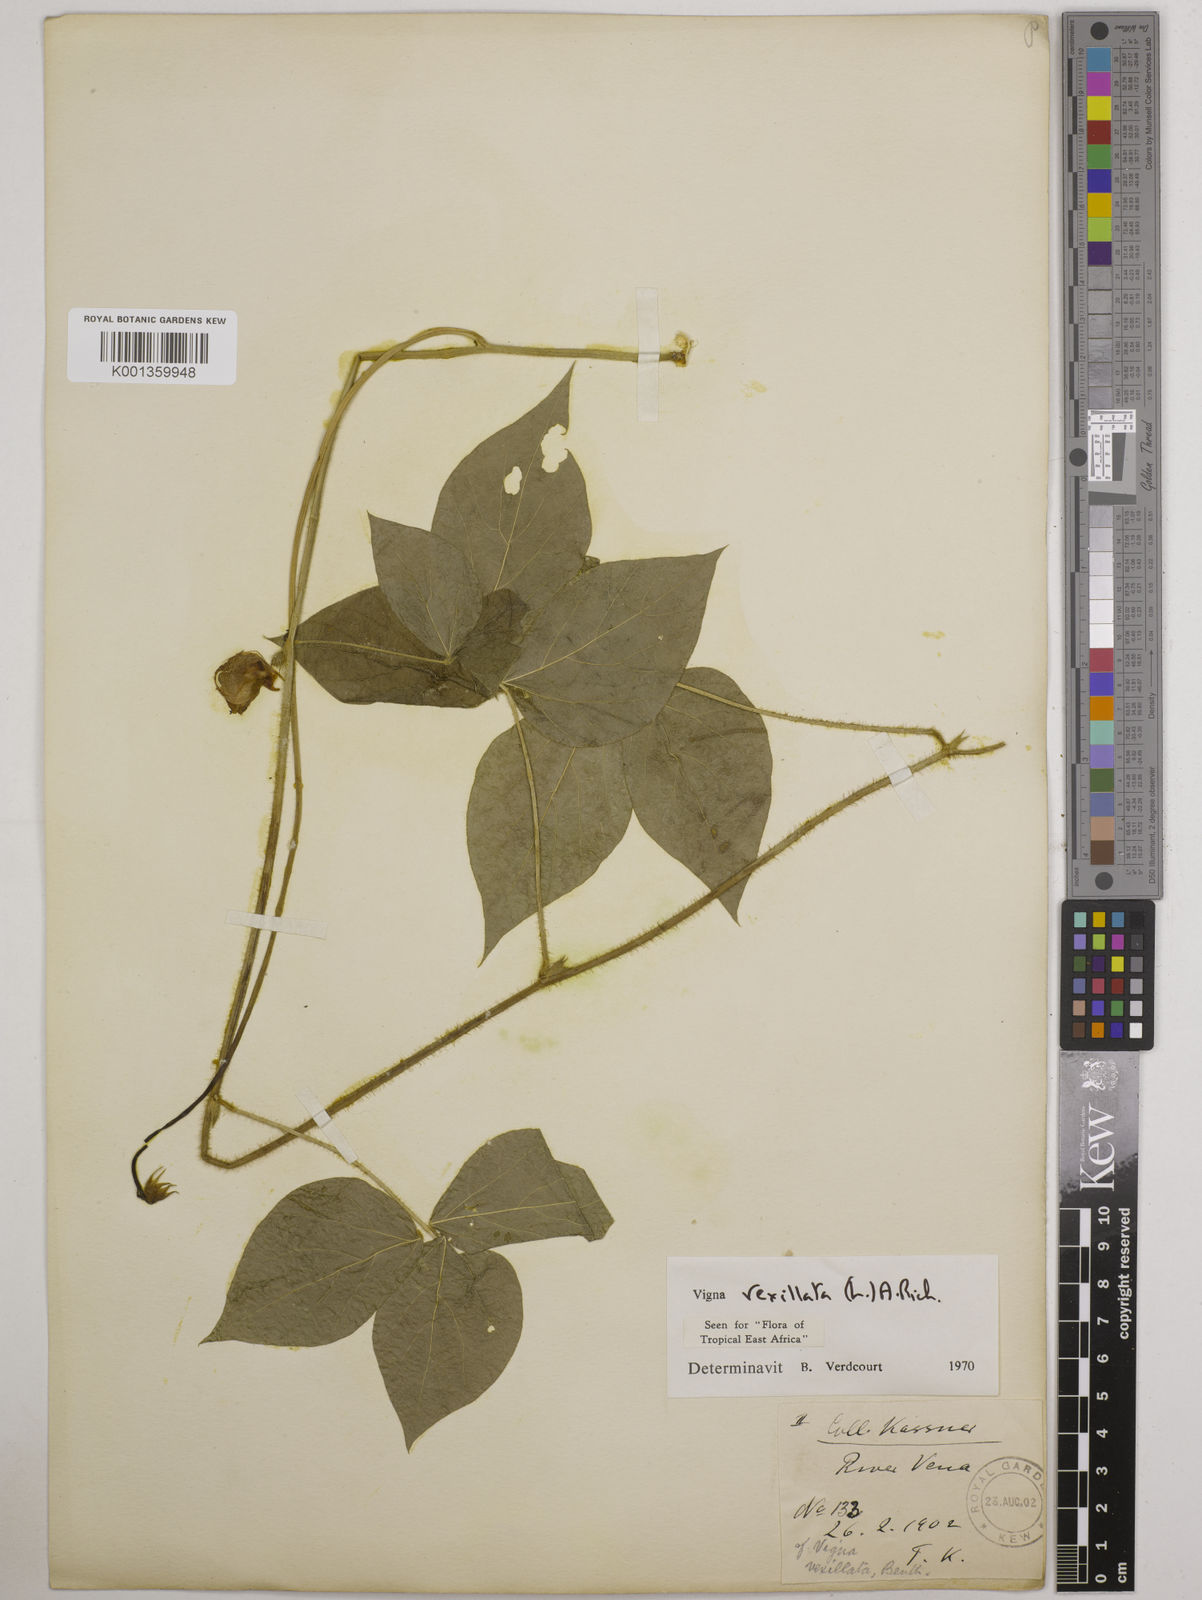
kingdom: Plantae
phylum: Tracheophyta
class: Magnoliopsida
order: Fabales
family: Fabaceae
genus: Vigna
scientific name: Vigna vexillata
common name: Zombi pea
